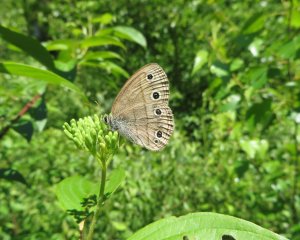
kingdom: Animalia
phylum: Arthropoda
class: Insecta
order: Lepidoptera
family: Nymphalidae
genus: Euptychia
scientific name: Euptychia cymela
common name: Little Wood Satyr
